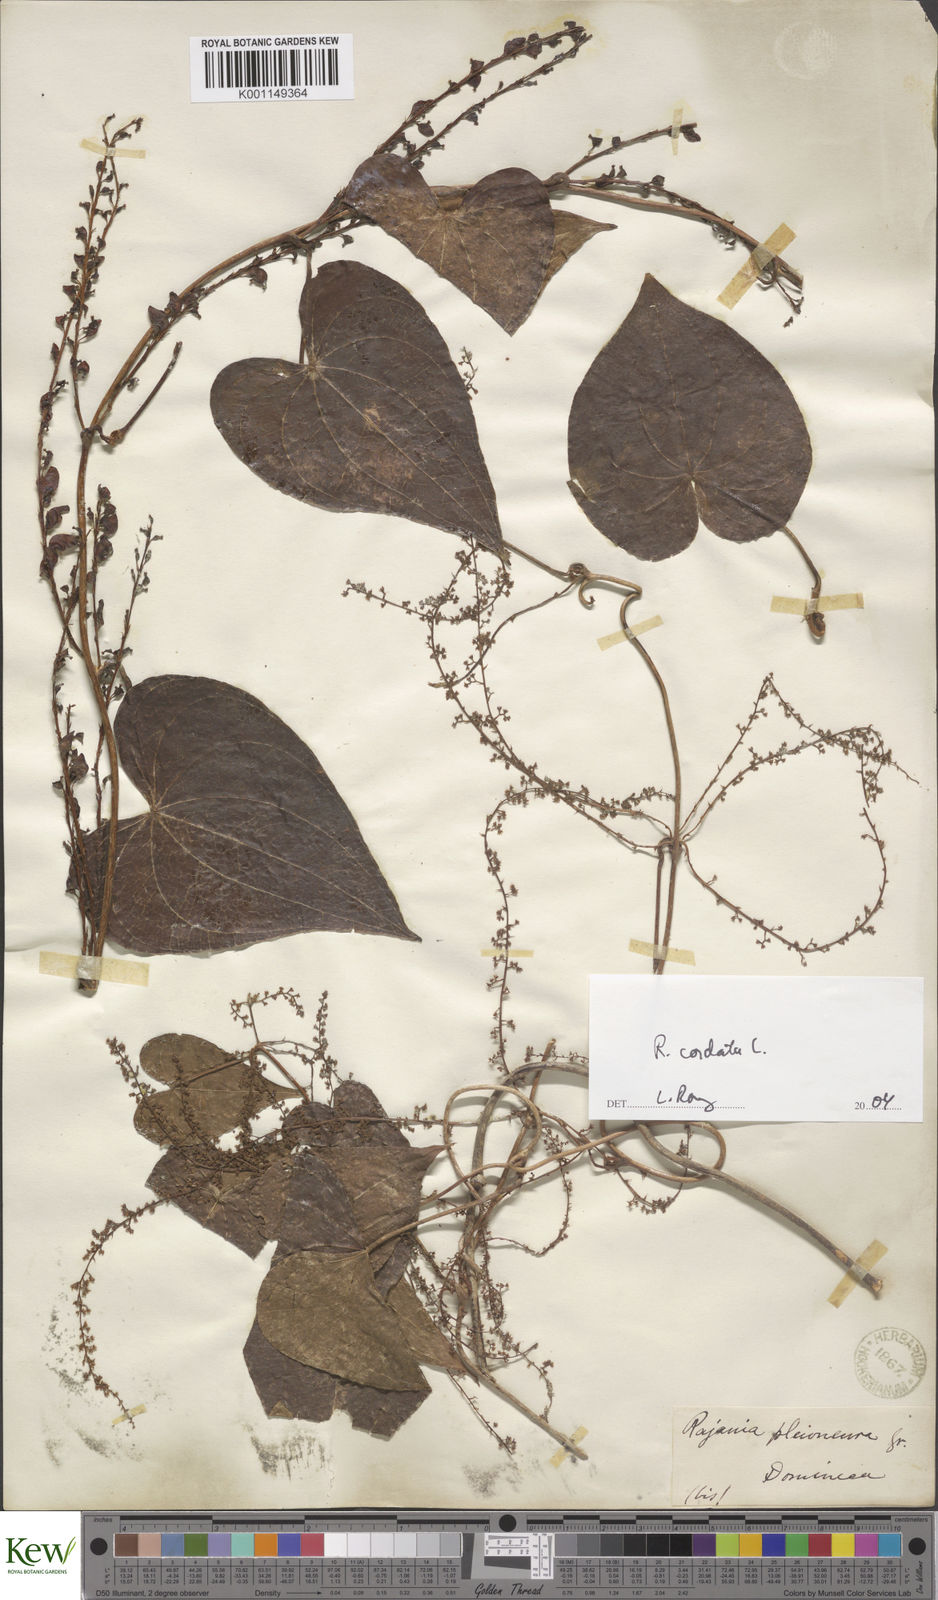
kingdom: Plantae
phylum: Tracheophyta
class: Liliopsida
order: Dioscoreales
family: Dioscoreaceae
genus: Dioscorea
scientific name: Dioscorea
